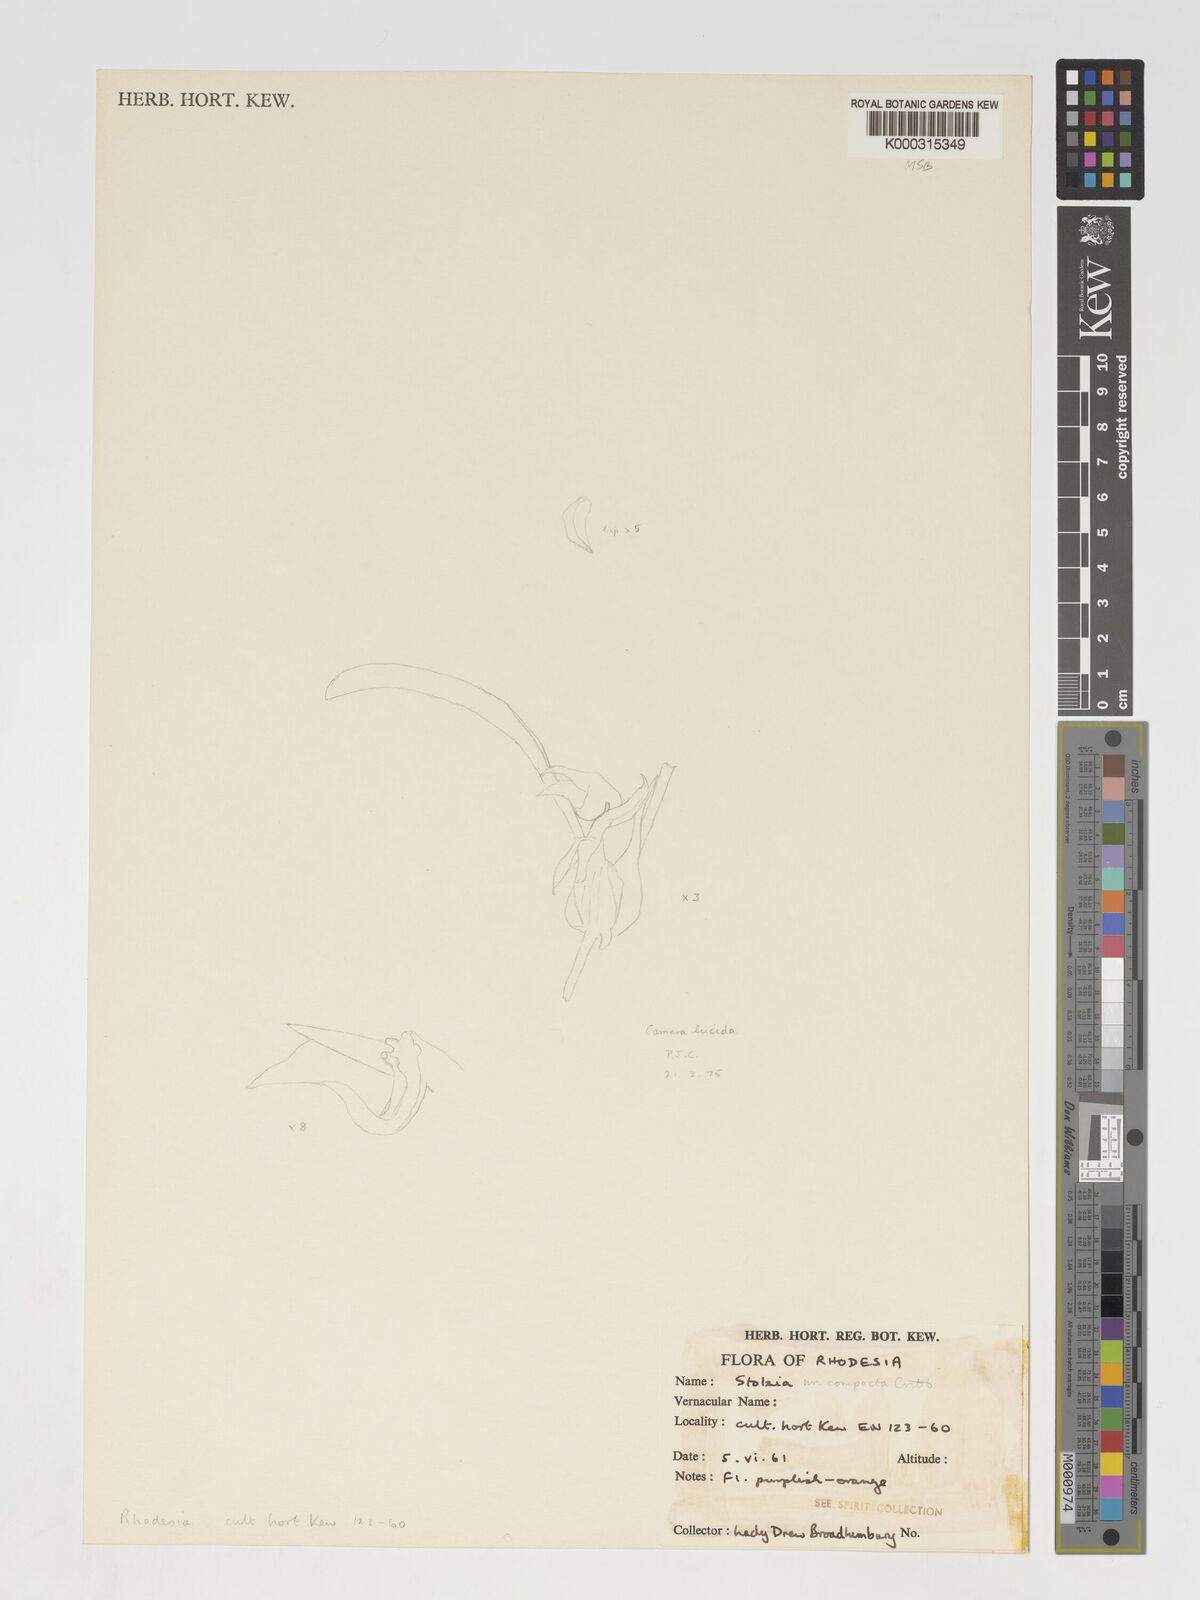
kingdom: Plantae
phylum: Tracheophyta
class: Liliopsida
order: Asparagales
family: Orchidaceae
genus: Porpax
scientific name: Porpax compacta
